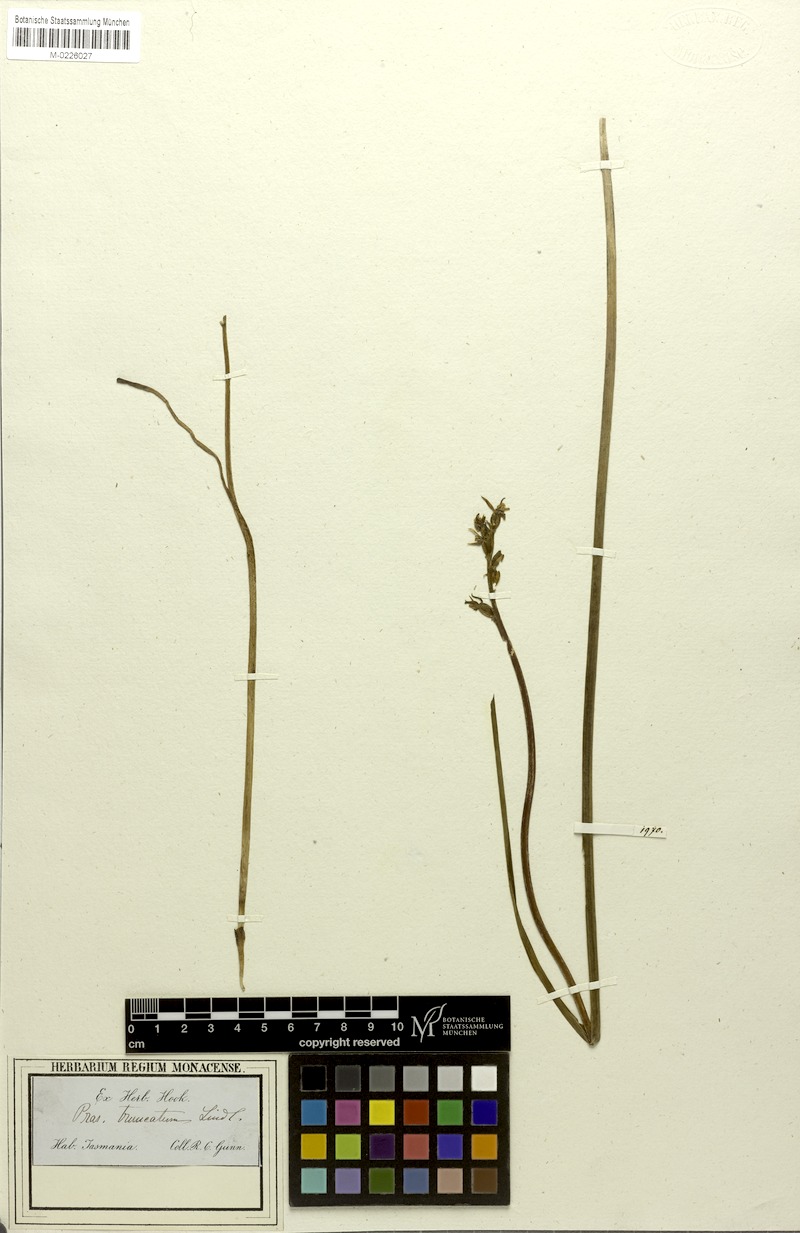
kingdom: Plantae
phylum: Tracheophyta
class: Liliopsida
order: Asparagales
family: Orchidaceae
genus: Prasophyllum
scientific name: Prasophyllum truncatum
